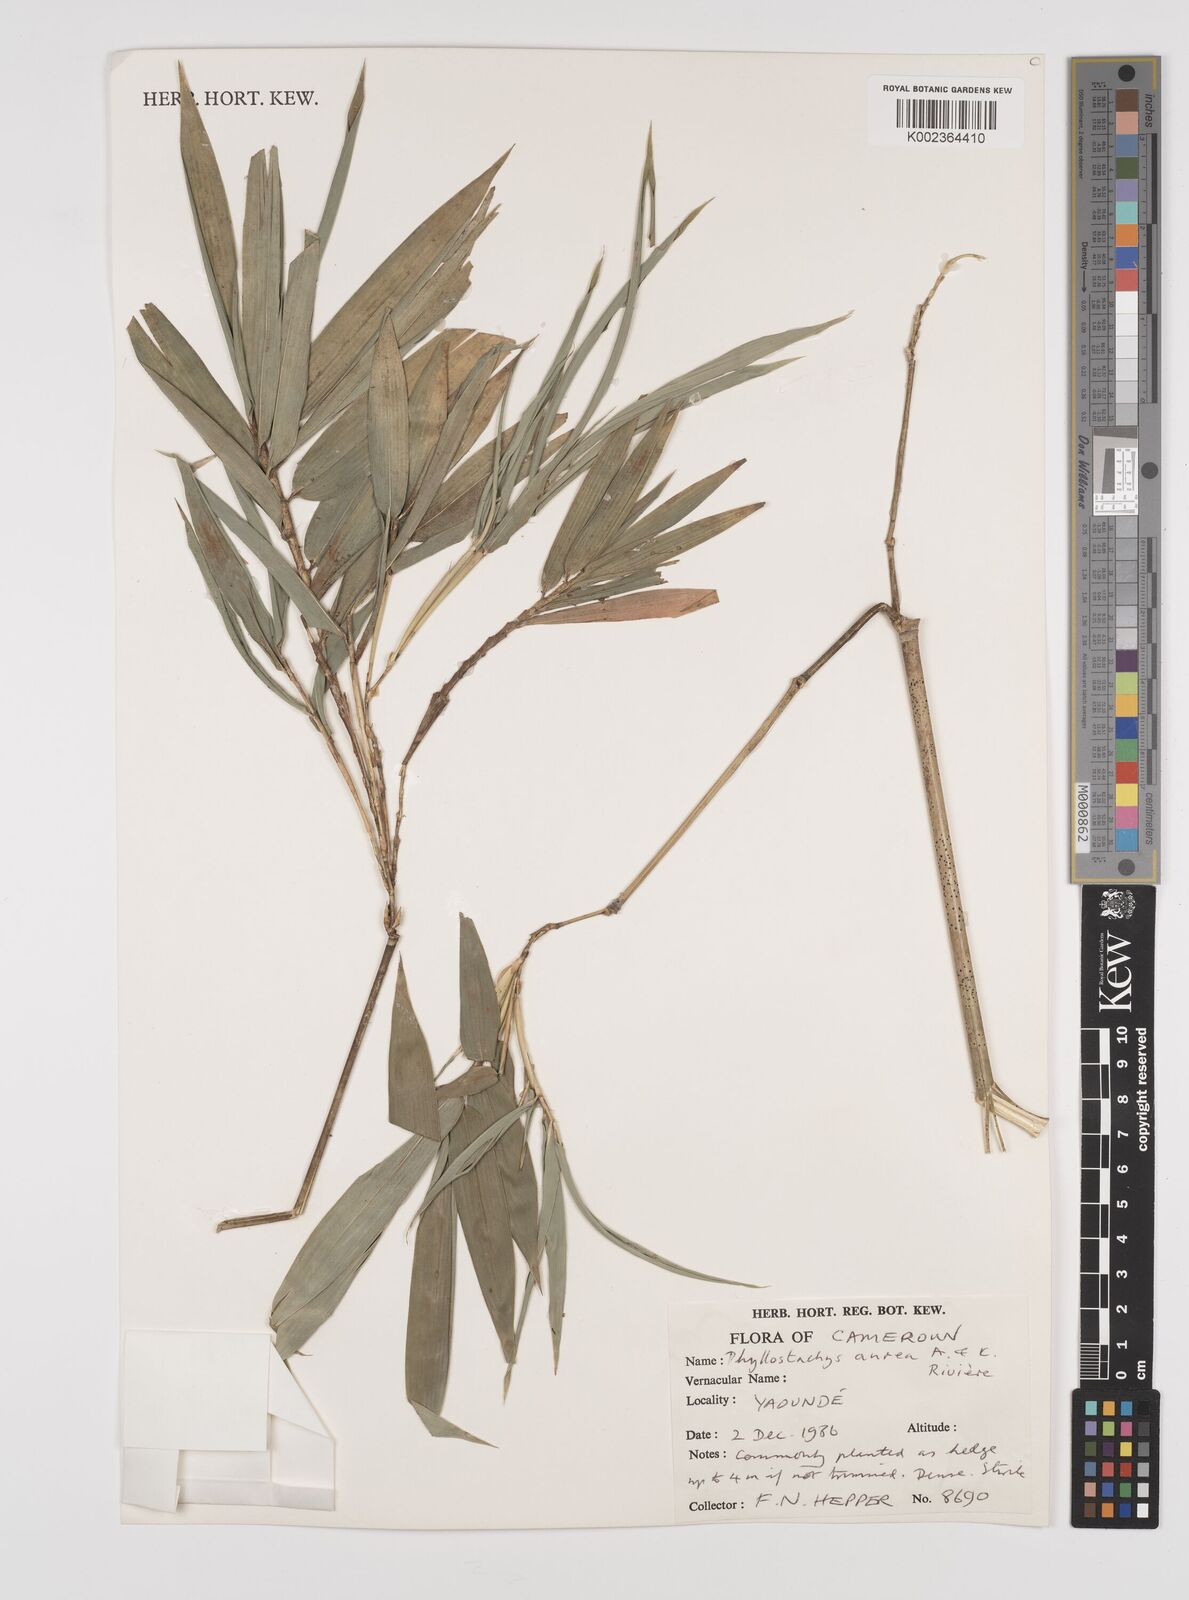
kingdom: Plantae
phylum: Tracheophyta
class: Liliopsida
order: Poales
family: Poaceae
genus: Phyllostachys
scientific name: Phyllostachys aurea
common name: Golden bamboo
